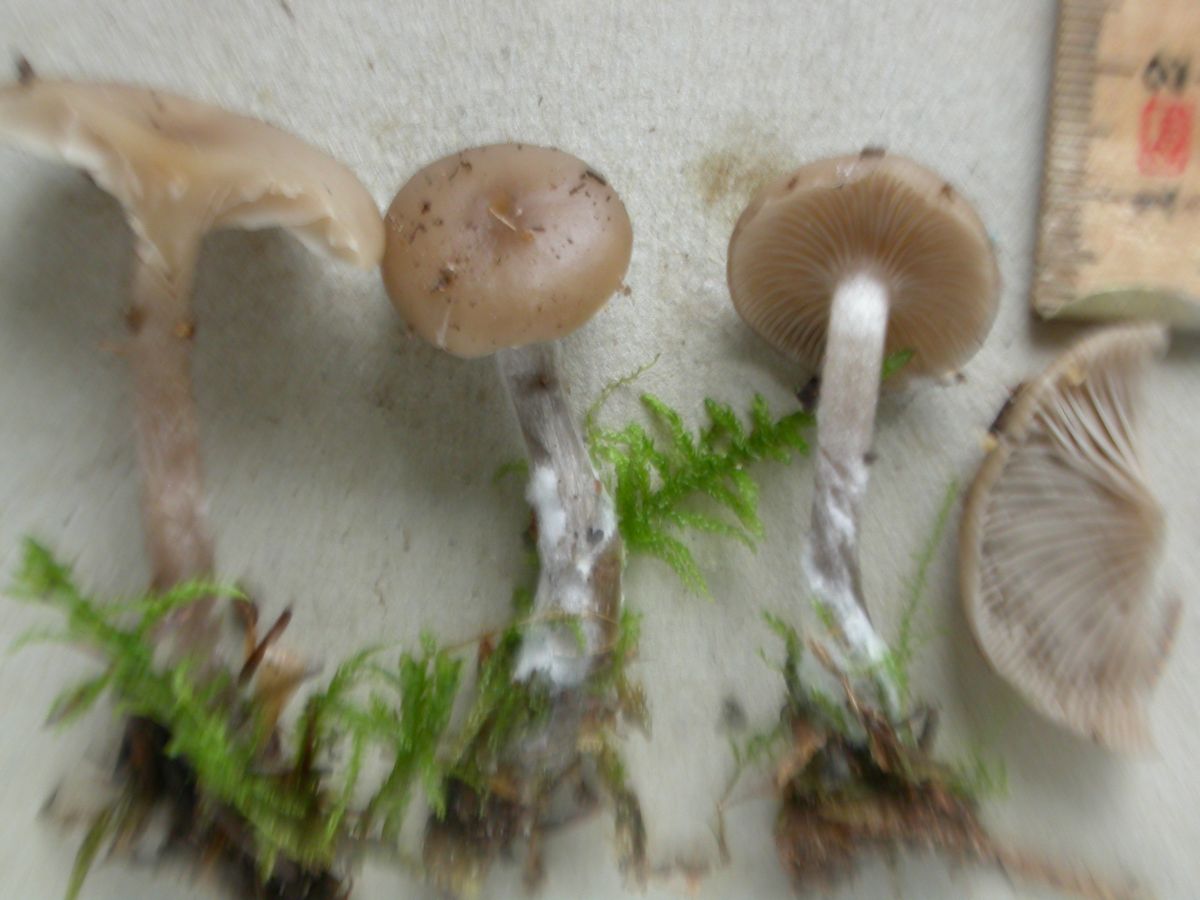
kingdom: Fungi
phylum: Basidiomycota
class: Agaricomycetes
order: Agaricales
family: Tricholomataceae
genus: Lepista
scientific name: Lepista metachroides
